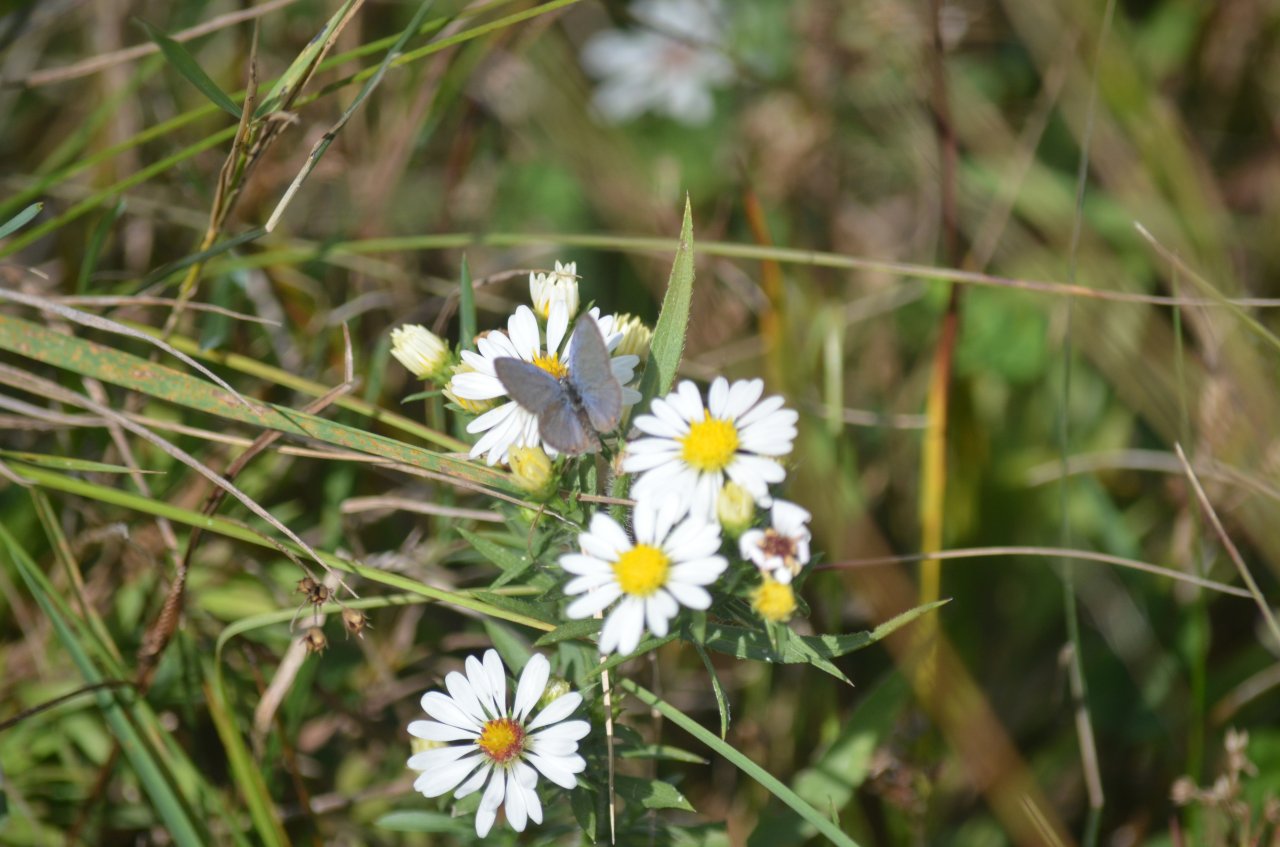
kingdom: Animalia
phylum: Arthropoda
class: Insecta
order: Lepidoptera
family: Lycaenidae
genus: Elkalyce
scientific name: Elkalyce comyntas
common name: Eastern Tailed-Blue
